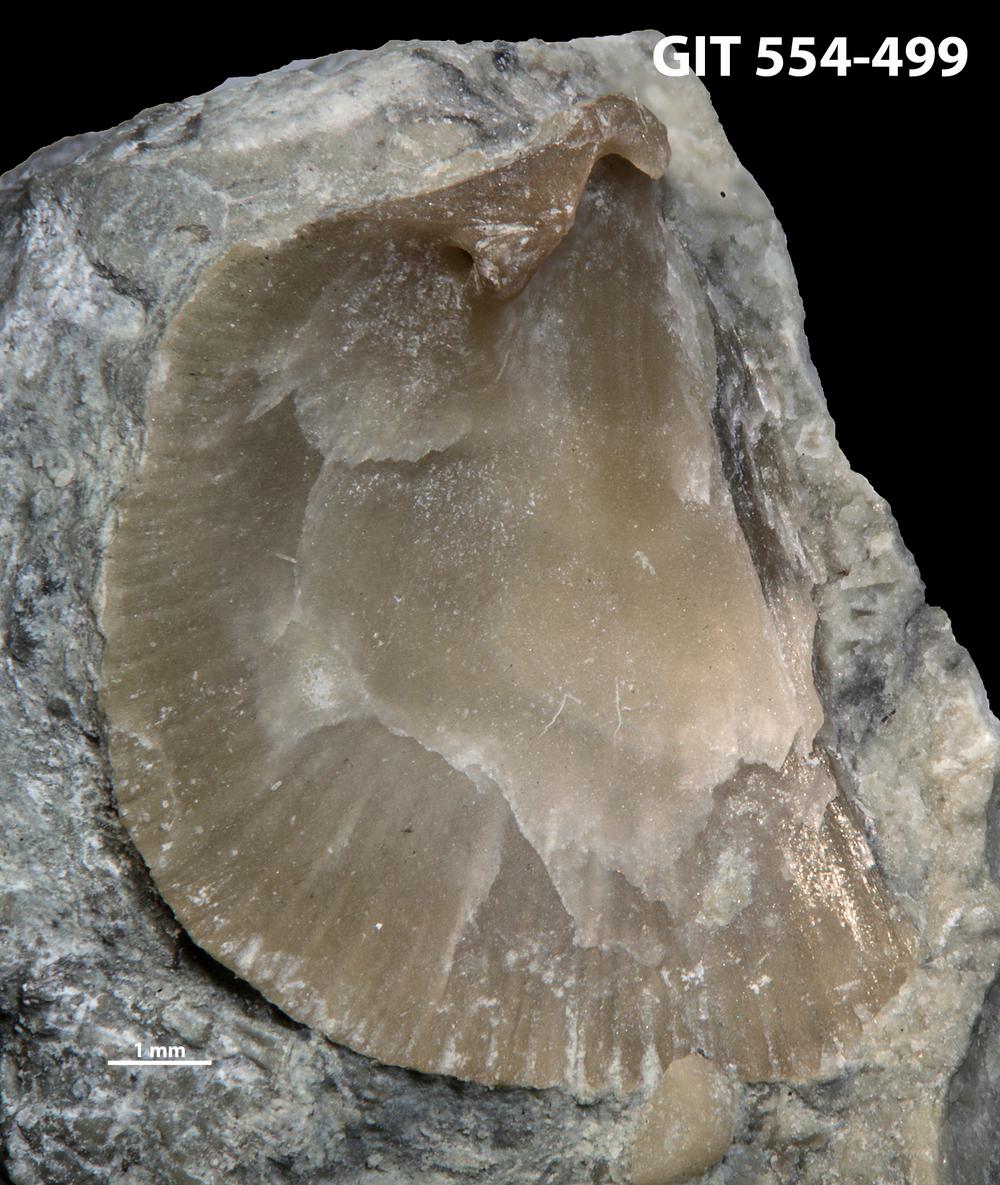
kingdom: Animalia
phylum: Brachiopoda
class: Rhynchonellata
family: Dalmanellidae
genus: Isorthis
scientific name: Isorthis parvulus
